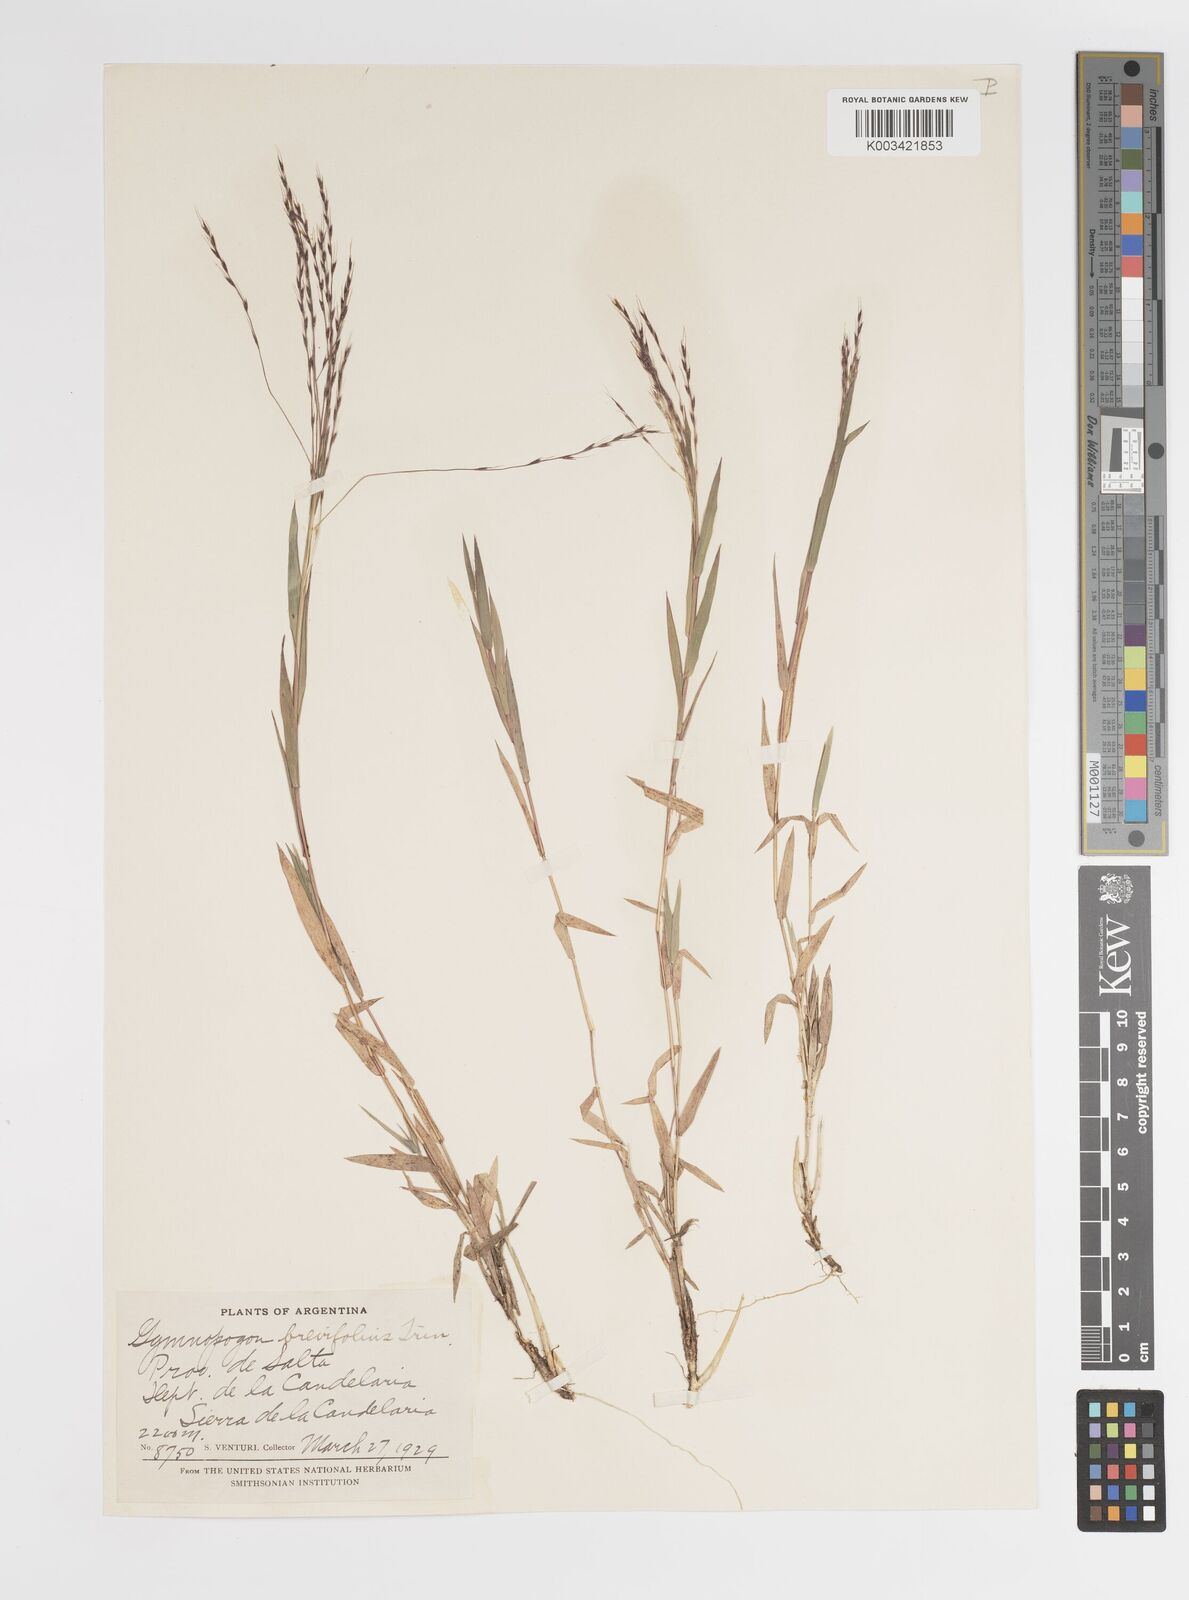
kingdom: Plantae
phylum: Tracheophyta
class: Liliopsida
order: Poales
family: Poaceae
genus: Gymnopogon
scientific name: Gymnopogon grandiflorus
